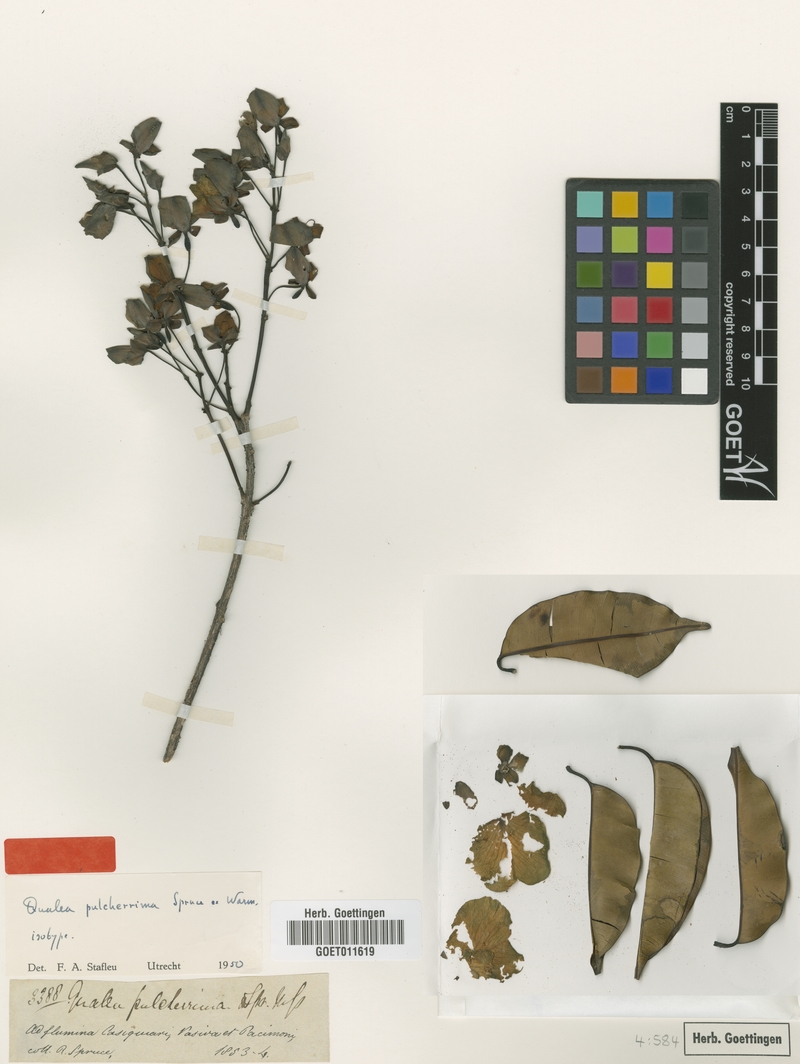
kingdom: Plantae
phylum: Tracheophyta
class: Magnoliopsida
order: Myrtales
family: Vochysiaceae
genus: Qualea
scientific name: Qualea pulcherrima
